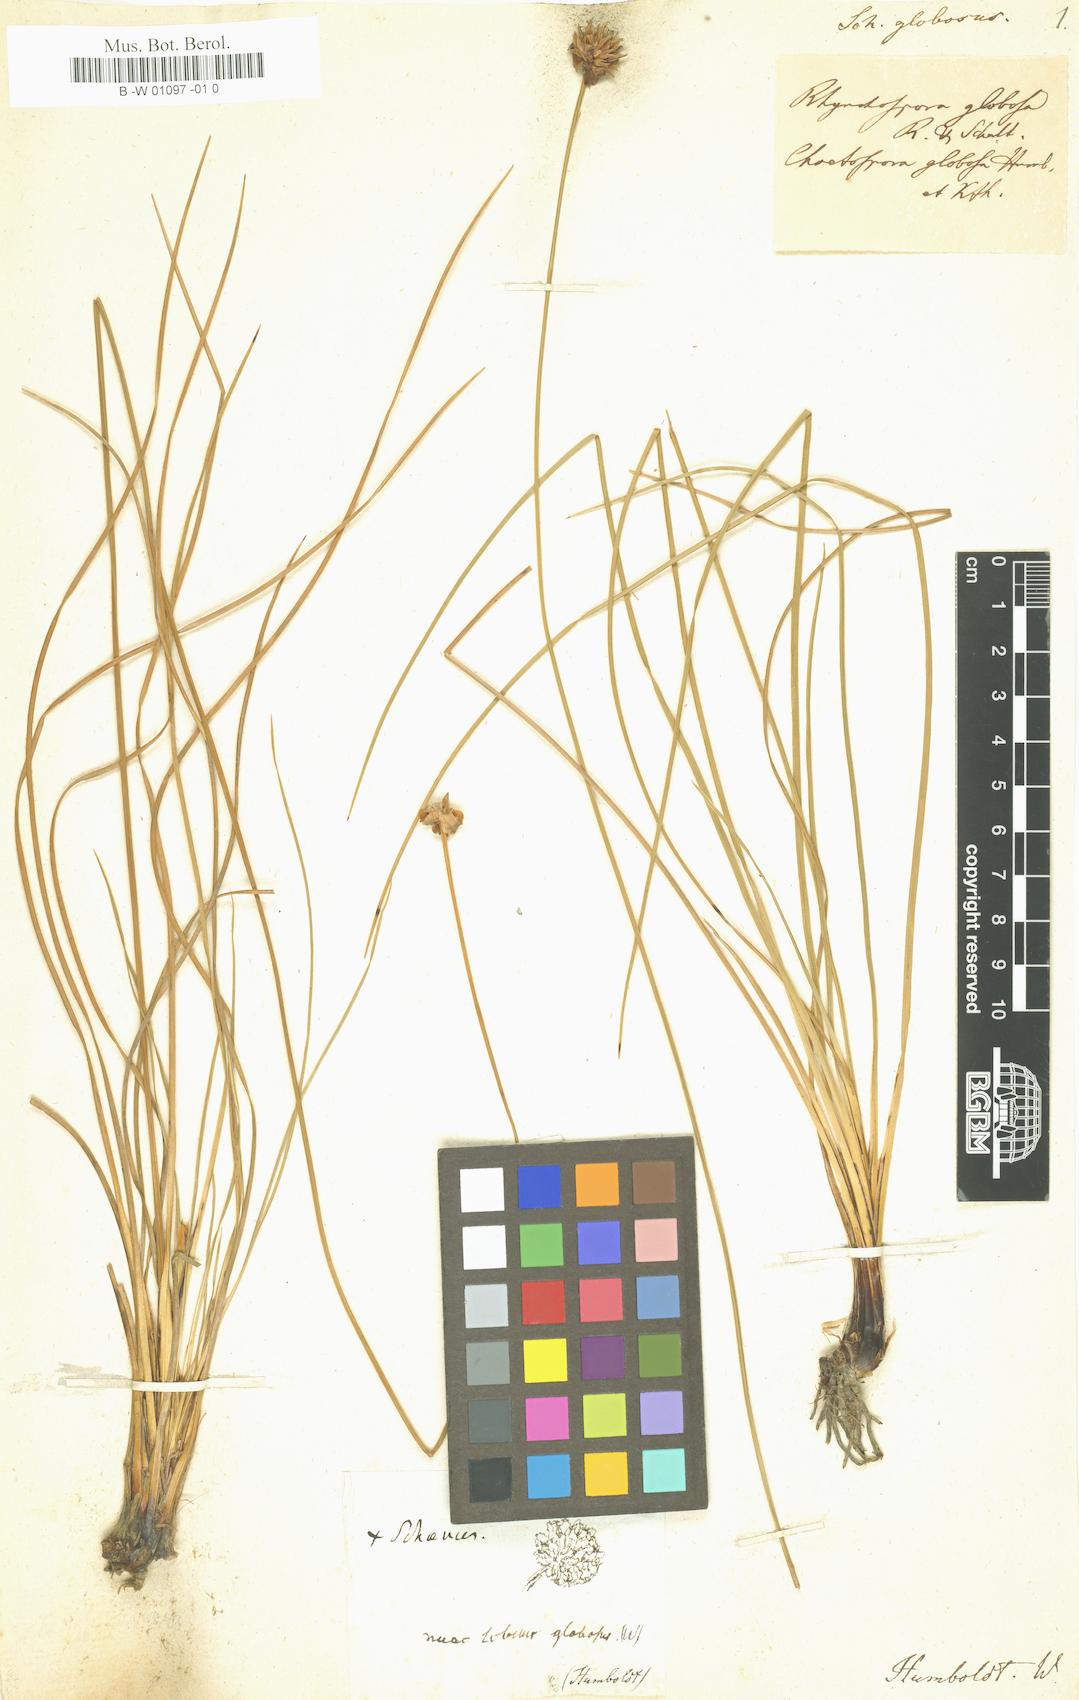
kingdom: Plantae
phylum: Tracheophyta
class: Liliopsida
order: Poales
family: Cyperaceae
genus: Rhynchospora
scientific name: Rhynchospora globosa
